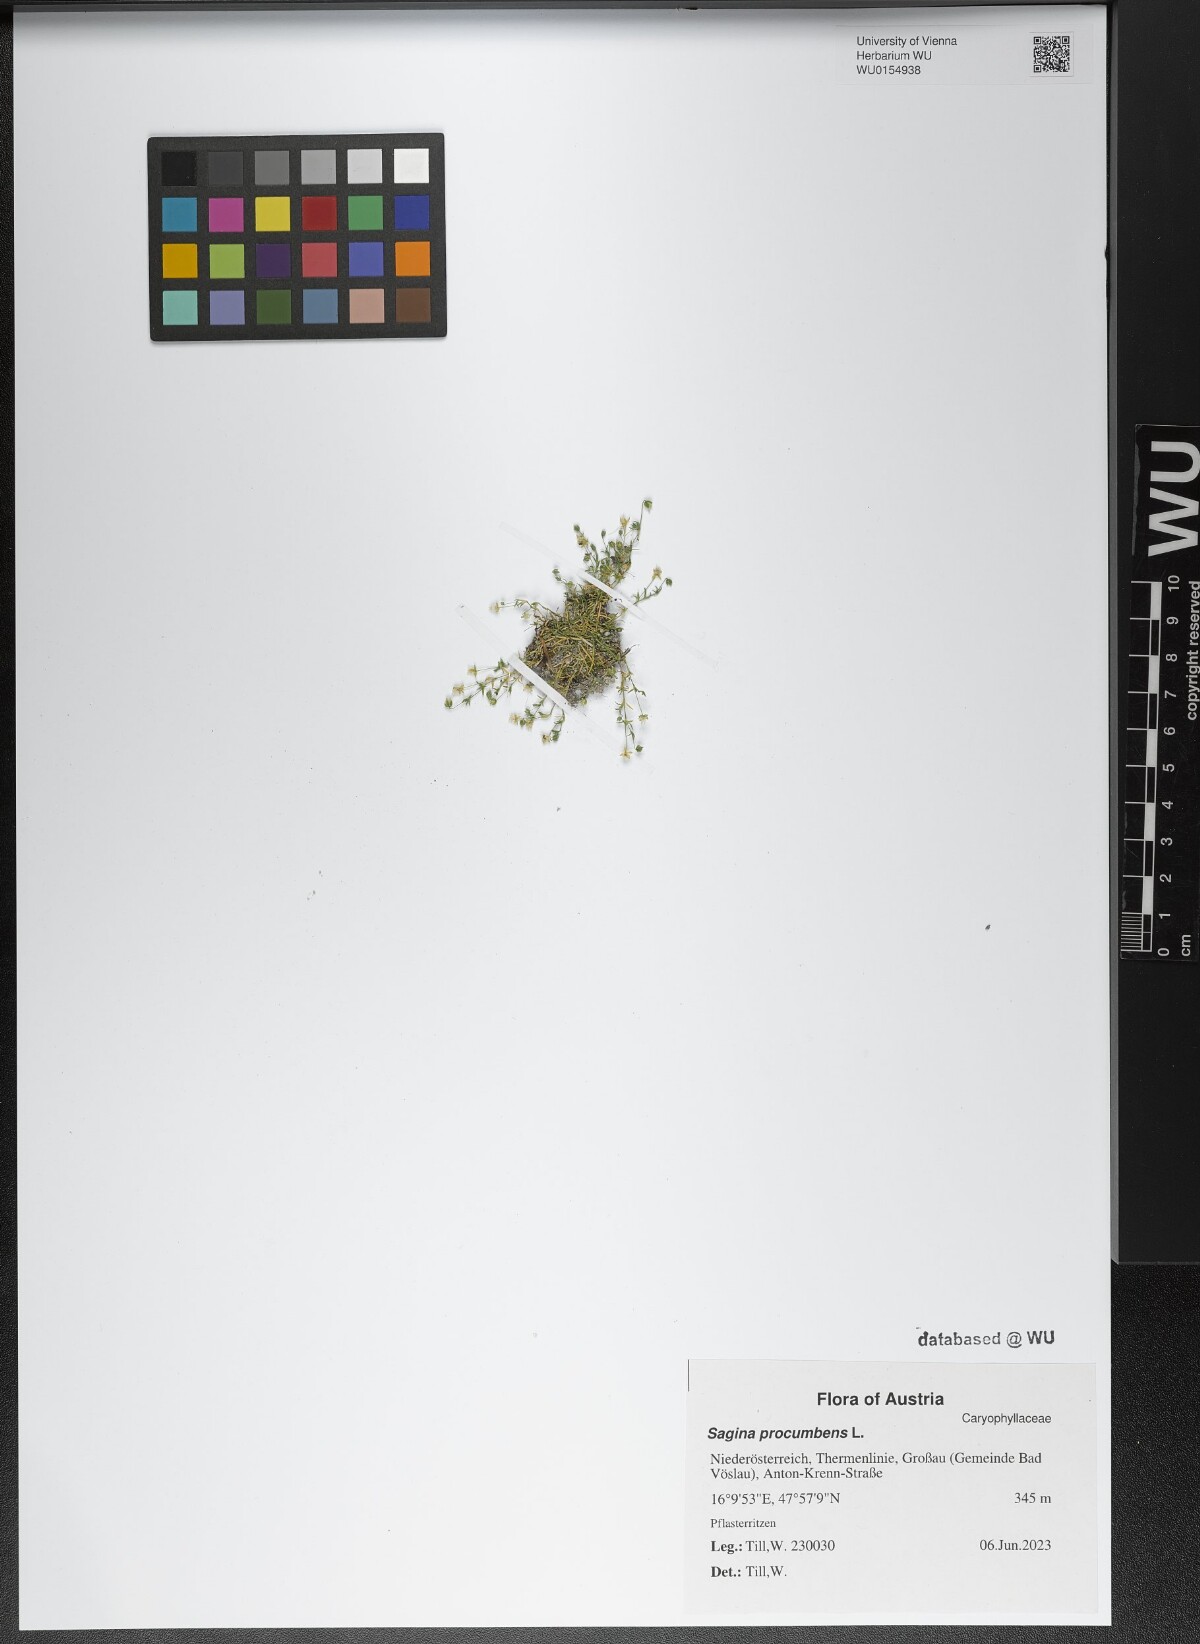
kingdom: Plantae
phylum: Tracheophyta
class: Magnoliopsida
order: Caryophyllales
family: Caryophyllaceae
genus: Sagina
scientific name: Sagina procumbens
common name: Procumbent pearlwort
